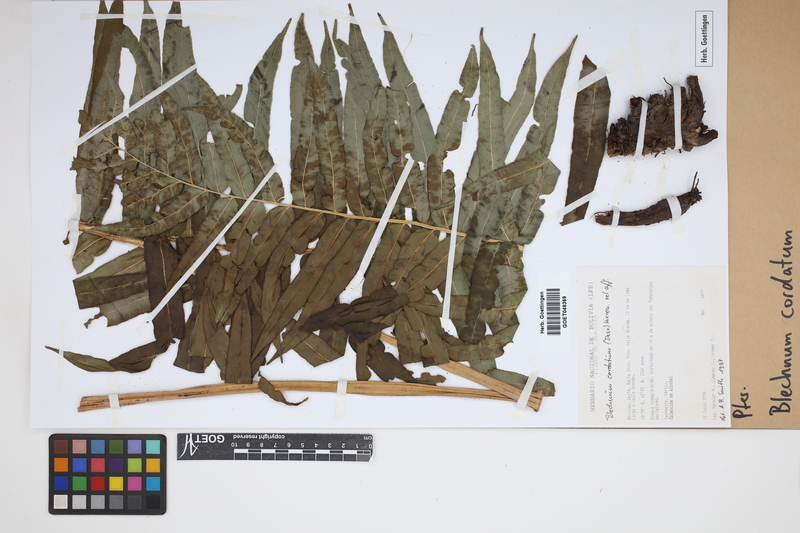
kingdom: Plantae
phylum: Tracheophyta
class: Polypodiopsida
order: Polypodiales
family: Blechnaceae
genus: Parablechnum
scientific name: Parablechnum cordatum
